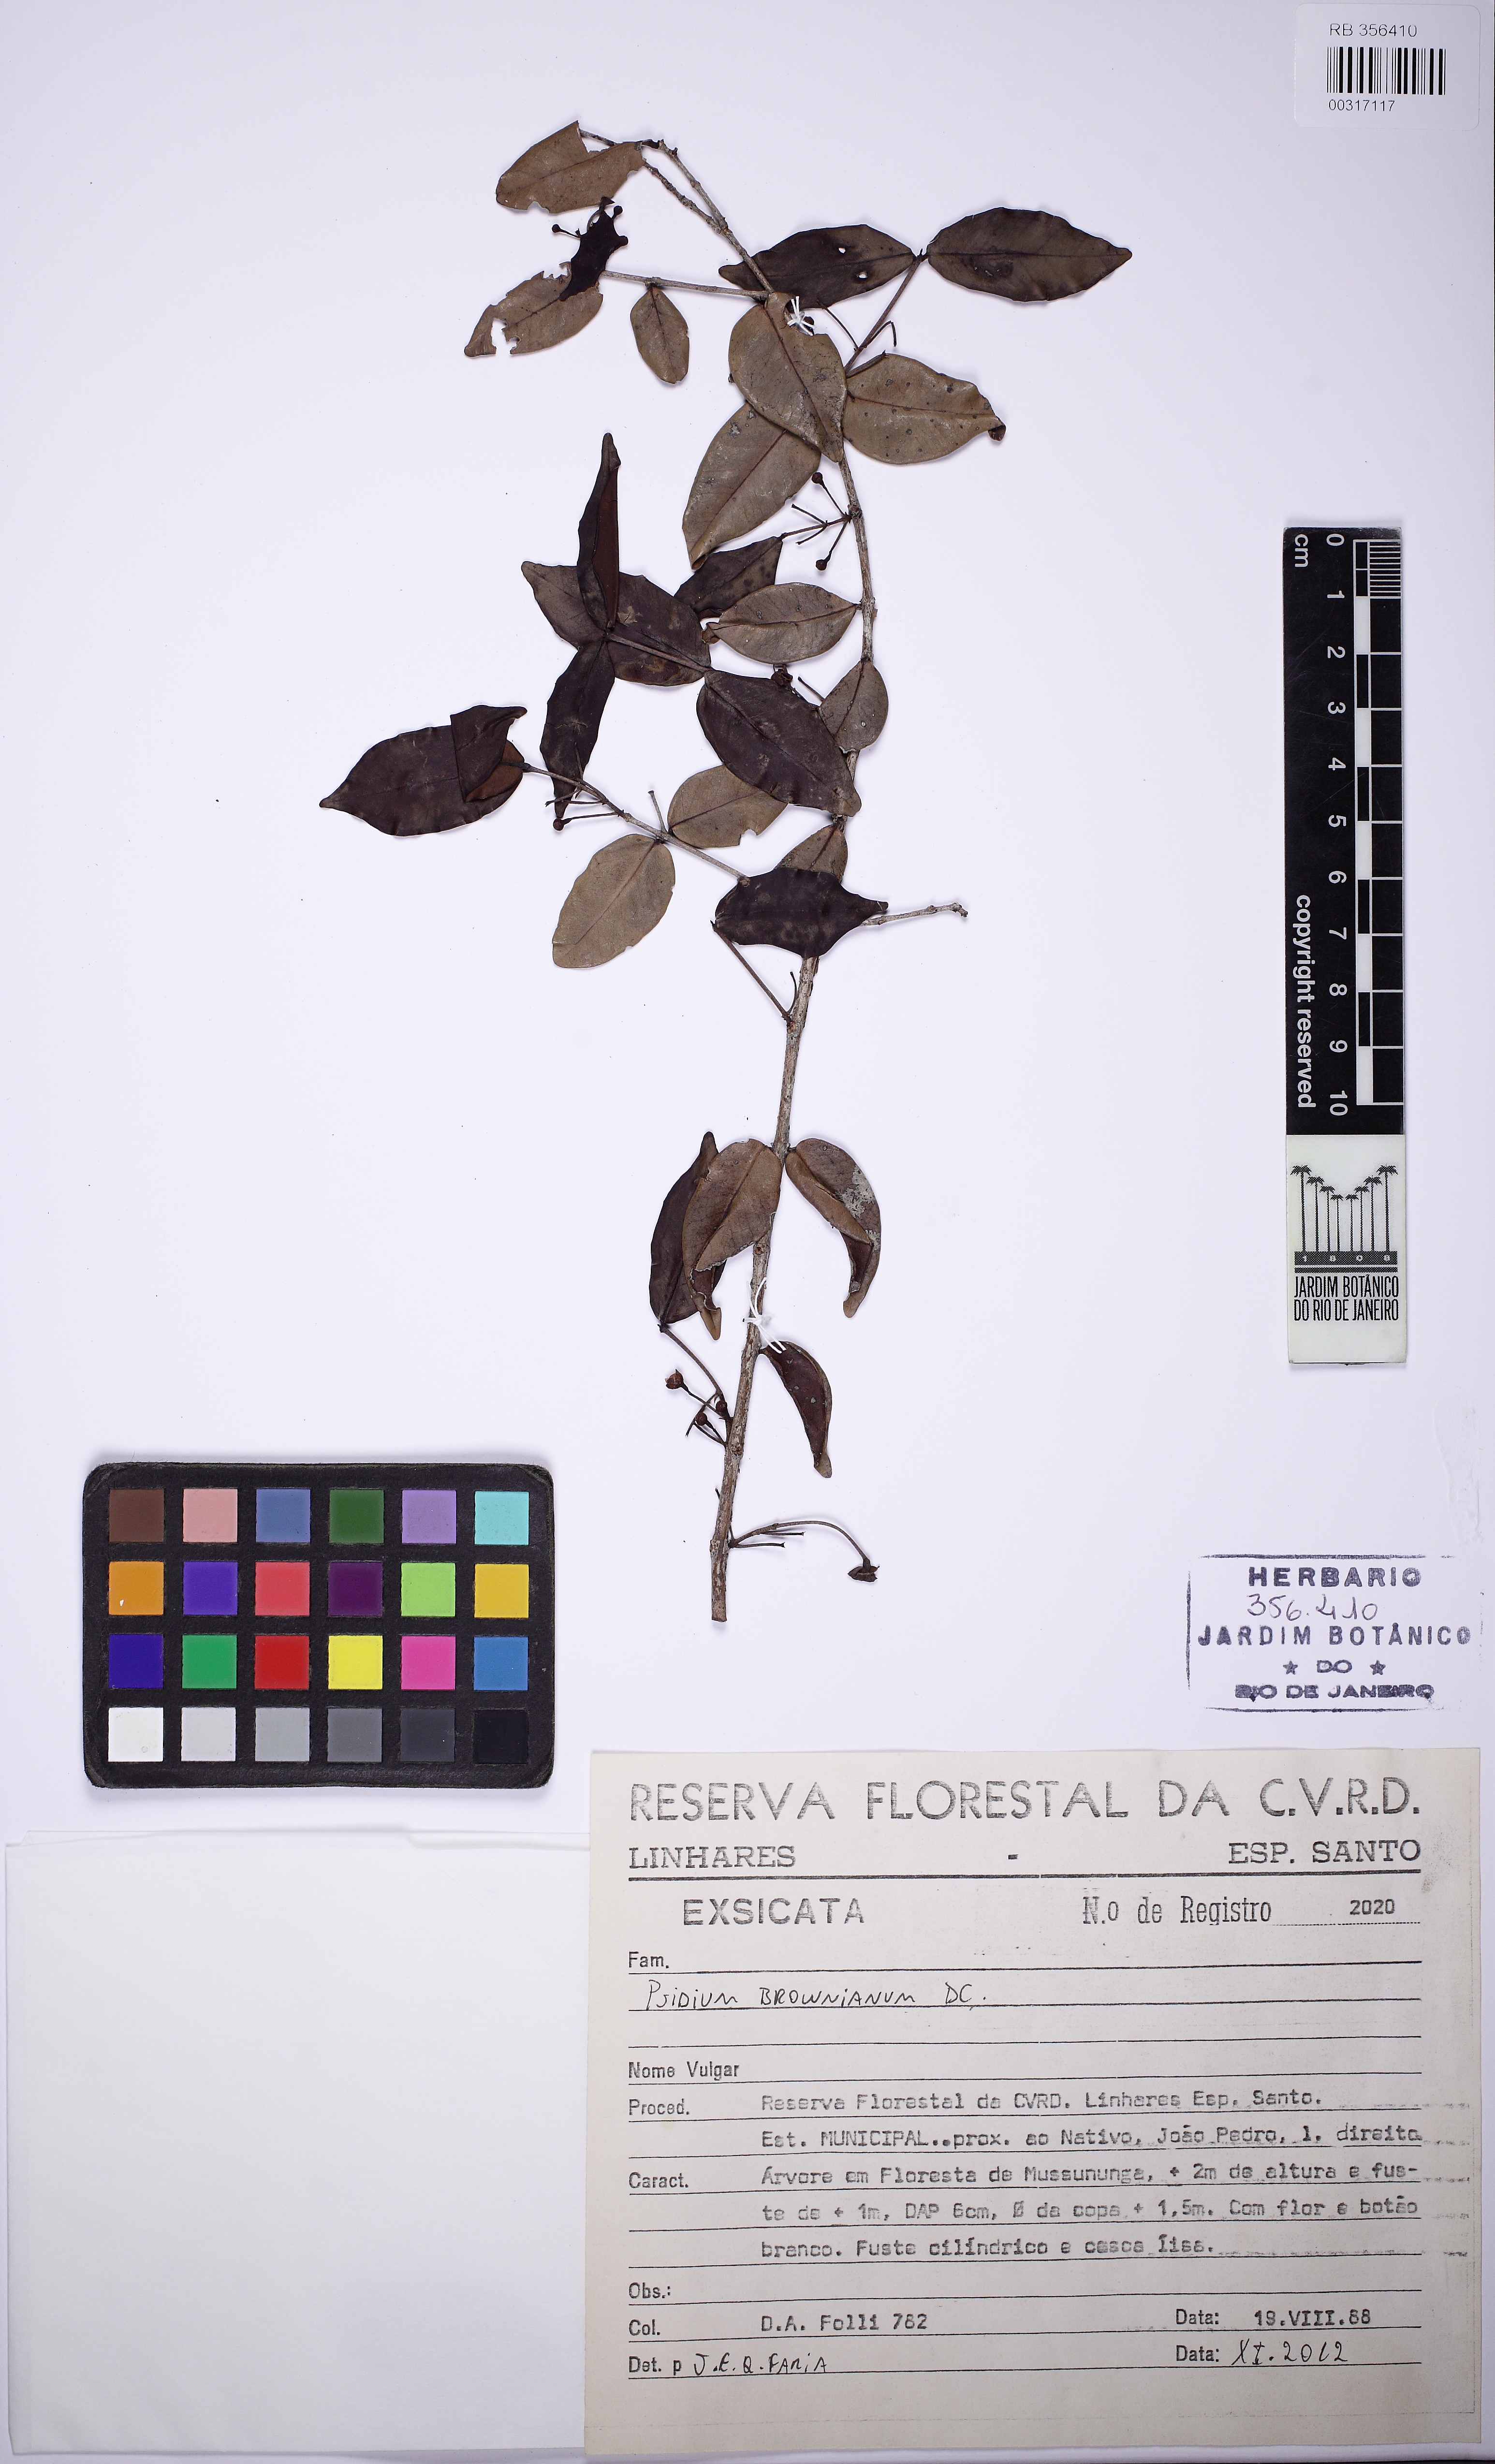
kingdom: Plantae
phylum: Tracheophyta
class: Magnoliopsida
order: Myrtales
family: Myrtaceae
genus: Psidium
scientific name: Psidium brownianum
